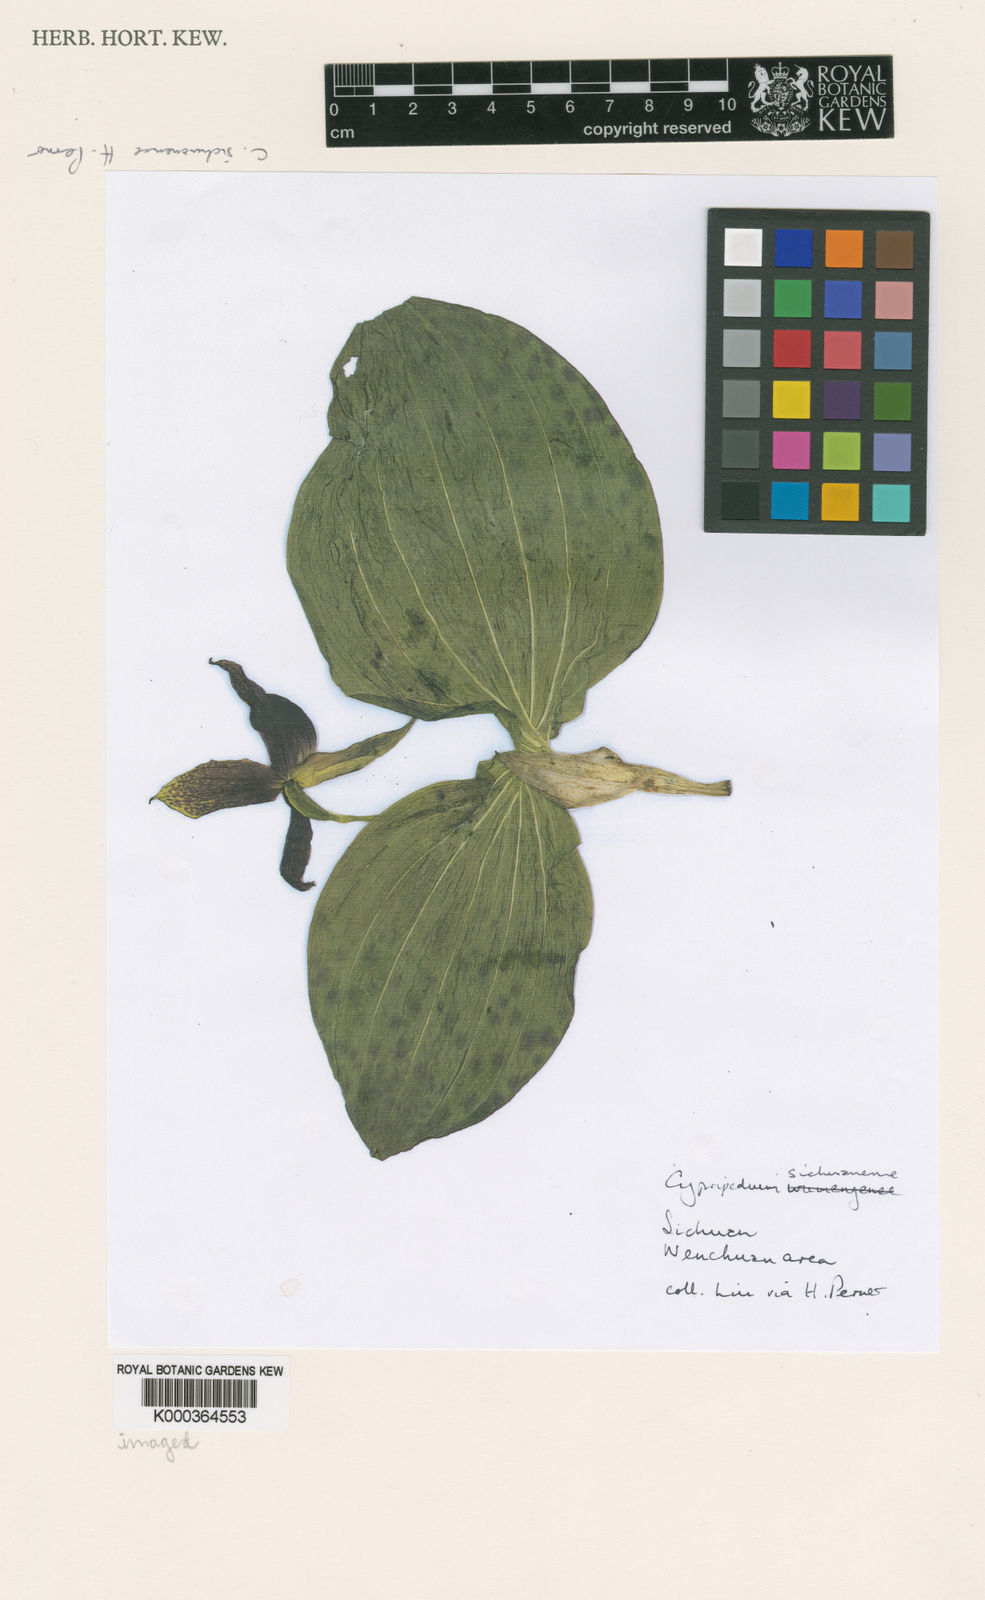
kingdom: Plantae
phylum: Tracheophyta
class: Liliopsida
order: Asparagales
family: Orchidaceae
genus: Cypripedium
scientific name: Cypripedium sichuanense
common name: Sichuan cypripedium
